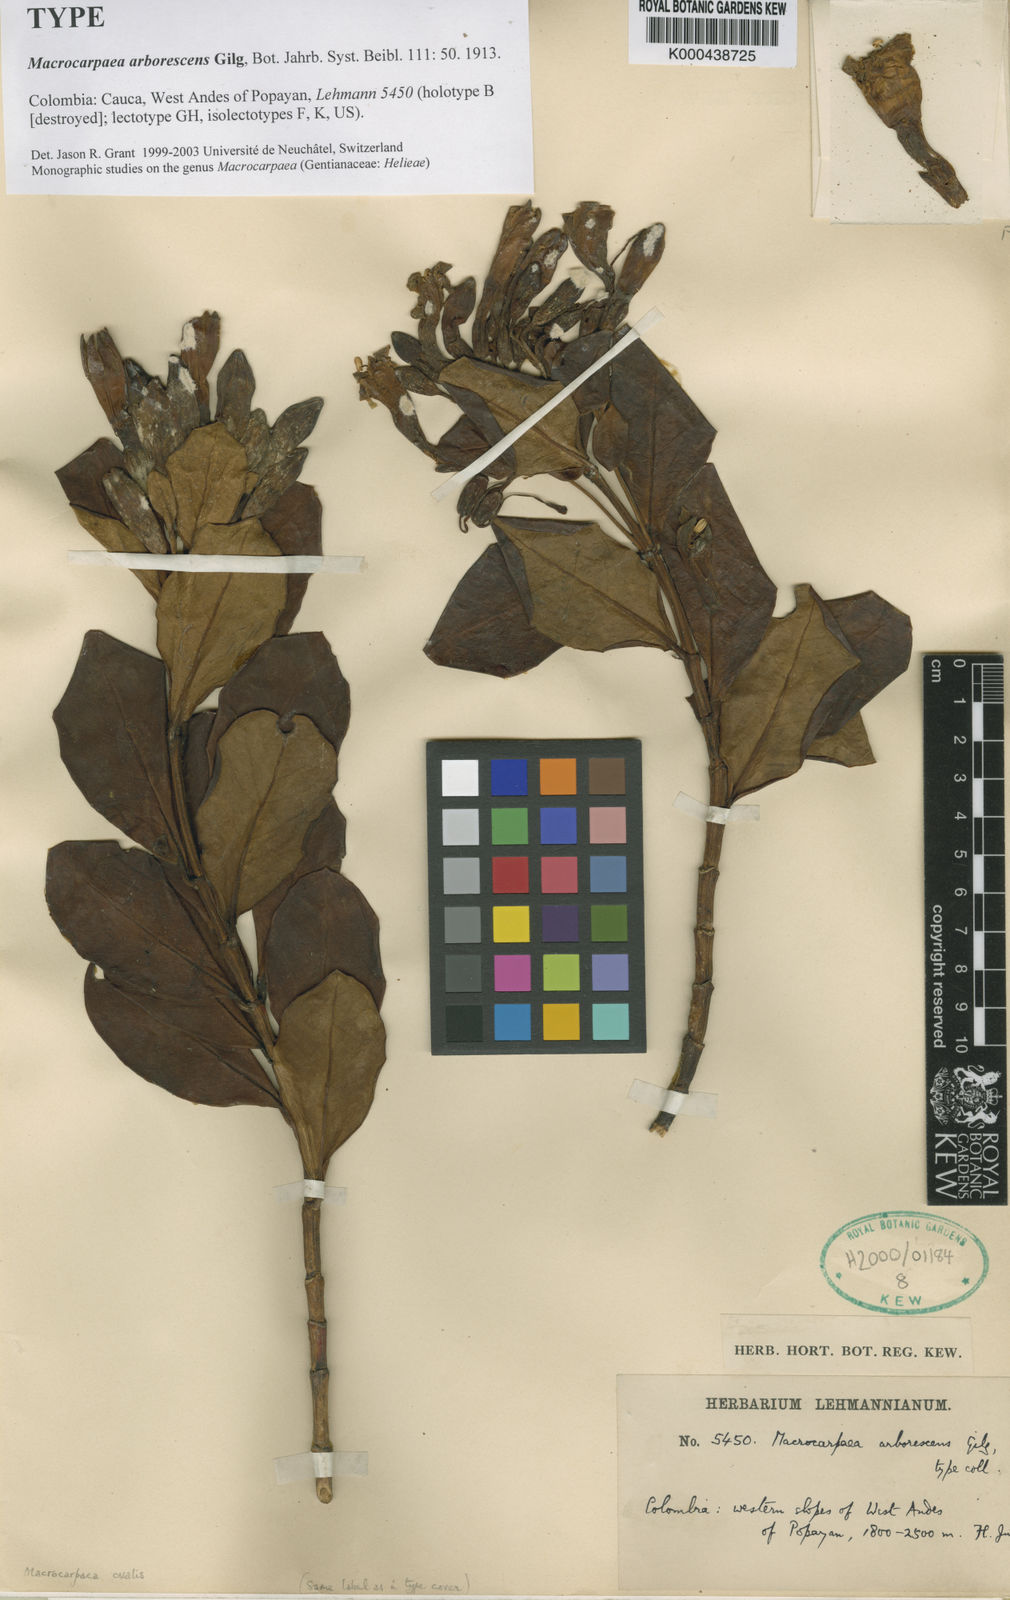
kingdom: Plantae
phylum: Tracheophyta
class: Magnoliopsida
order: Gentianales
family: Gentianaceae
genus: Macrocarpaea
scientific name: Macrocarpaea ovalis
